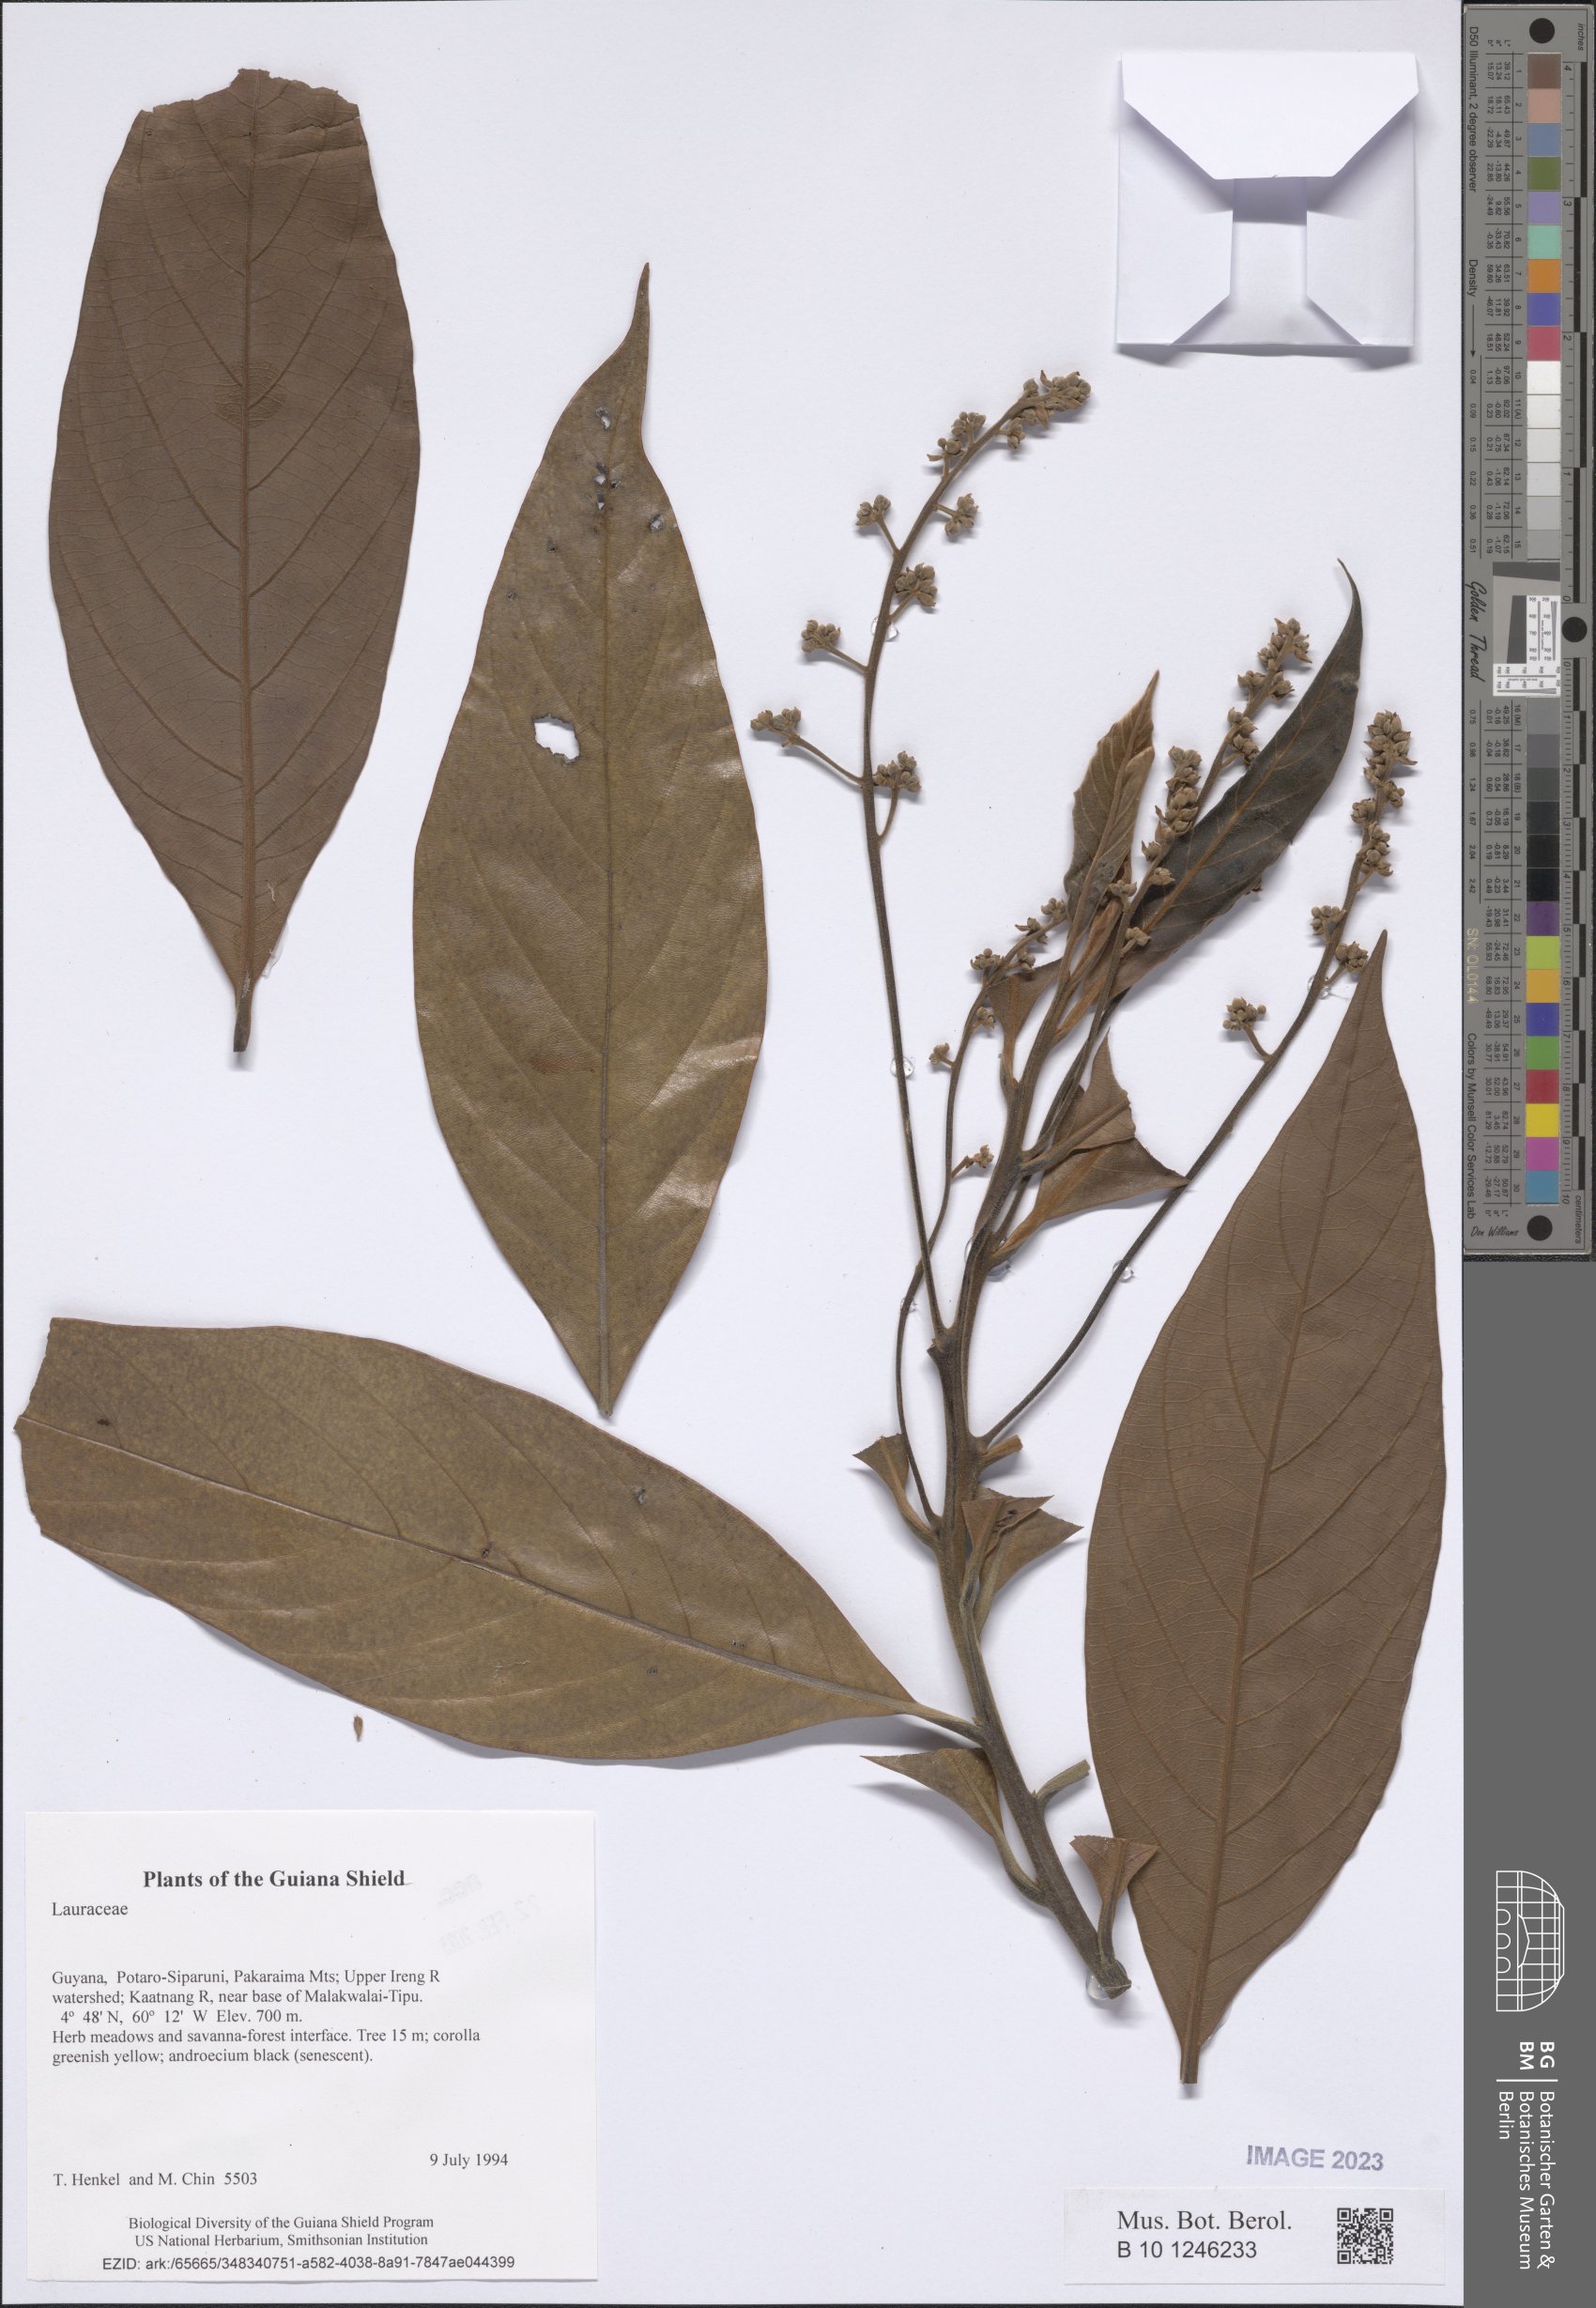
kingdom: Plantae
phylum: Tracheophyta
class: Magnoliopsida
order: Laurales
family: Lauraceae
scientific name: Lauraceae
